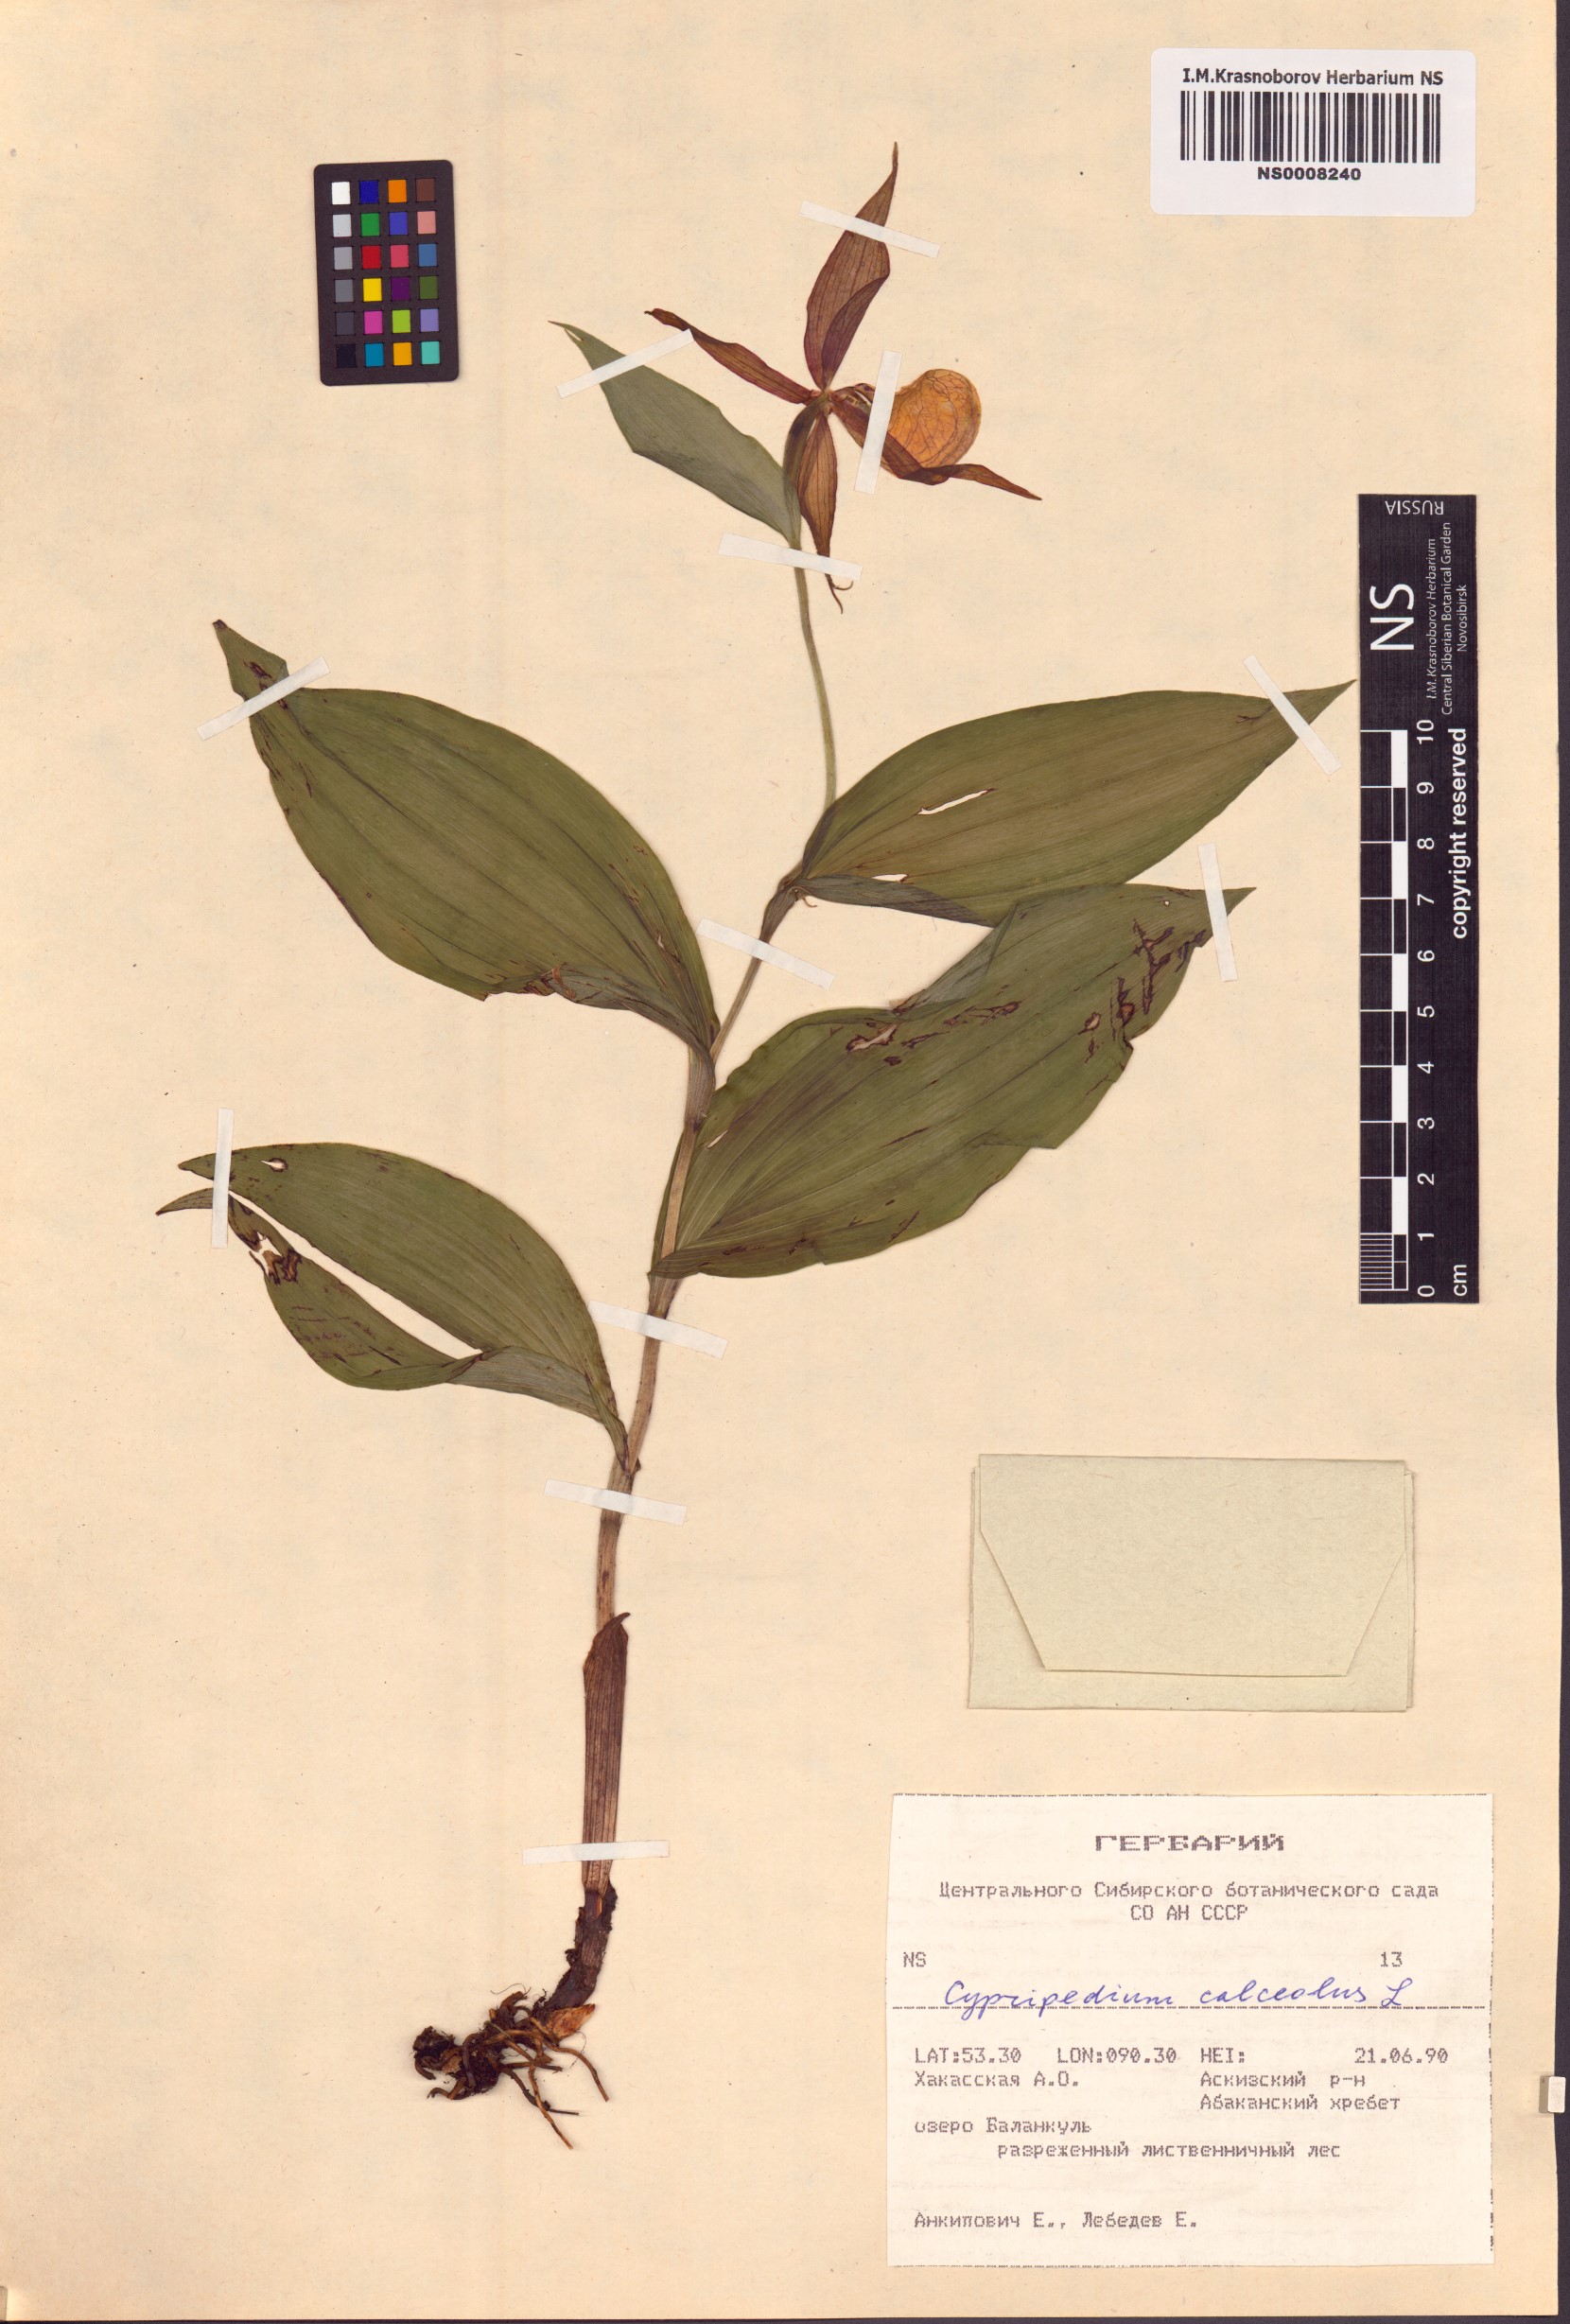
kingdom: Plantae
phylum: Tracheophyta
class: Liliopsida
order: Asparagales
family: Orchidaceae
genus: Cypripedium
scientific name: Cypripedium calceolus
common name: Lady's-slipper
